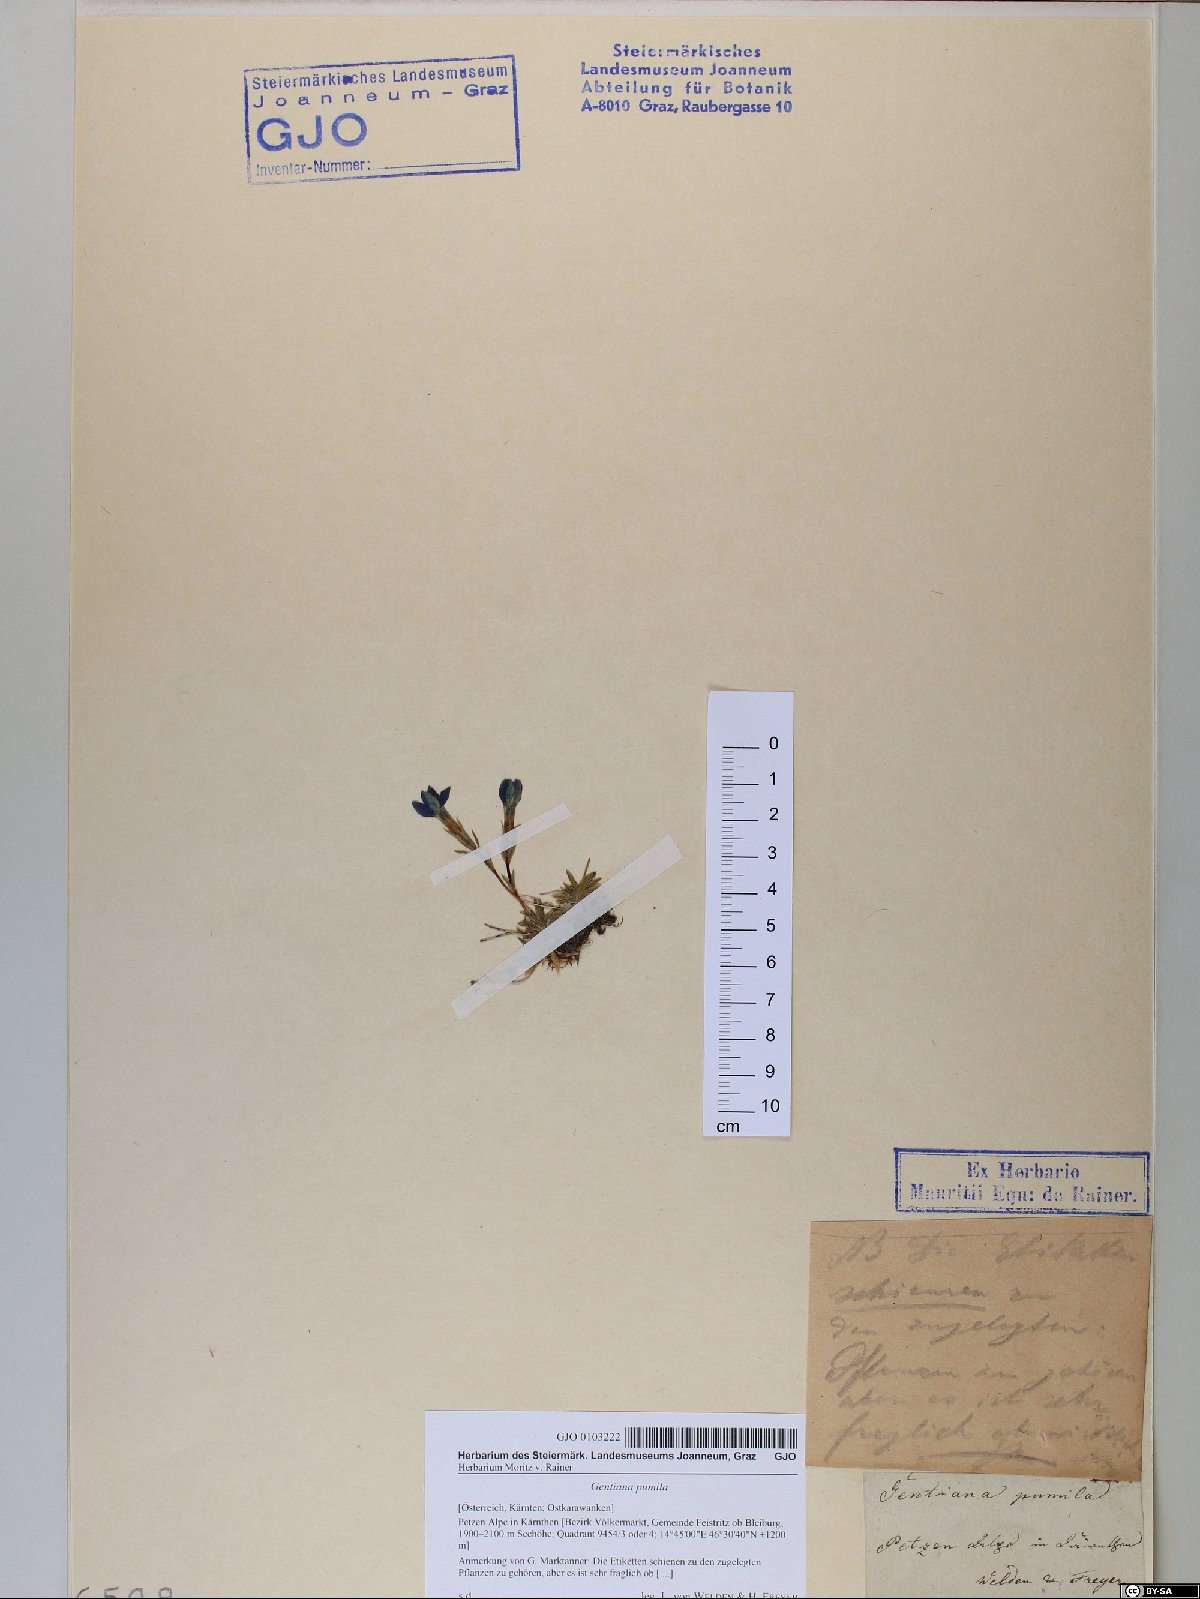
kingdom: Plantae
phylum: Tracheophyta
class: Magnoliopsida
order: Gentianales
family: Gentianaceae
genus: Gentiana
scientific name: Gentiana pumila
